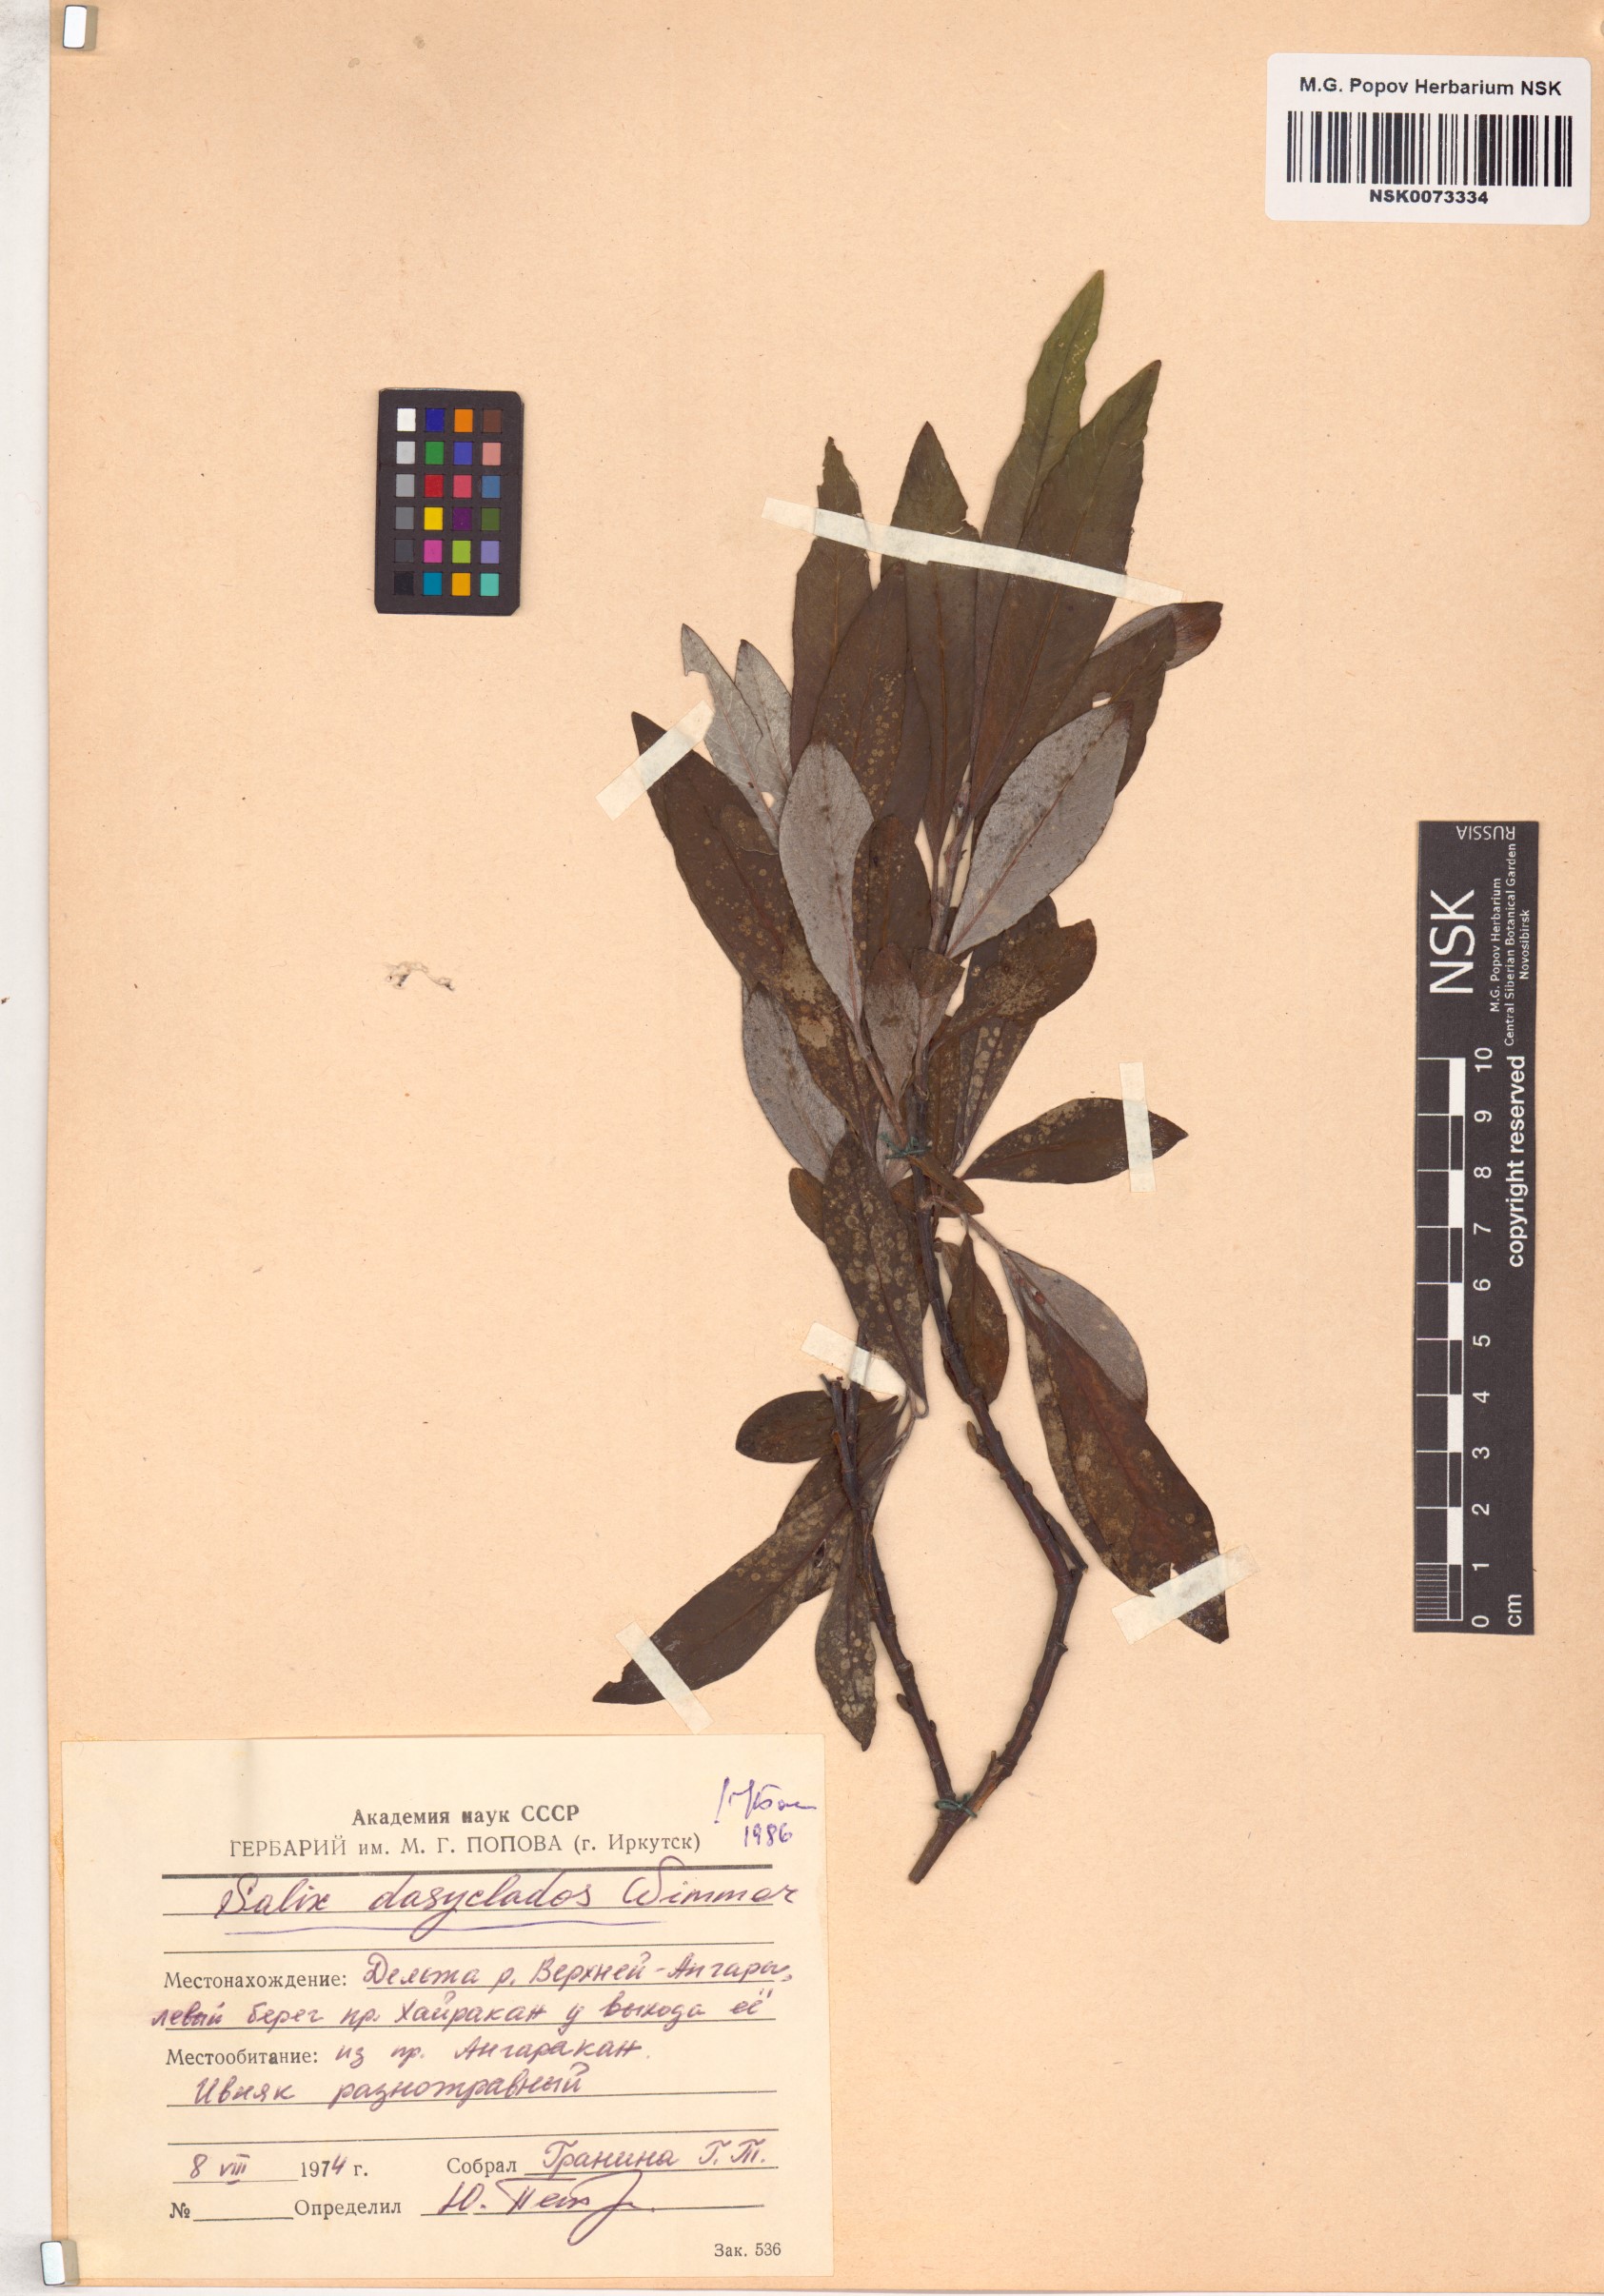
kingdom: Plantae
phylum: Tracheophyta
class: Magnoliopsida
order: Malpighiales
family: Salicaceae
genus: Salix
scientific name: Salix gmelinii
